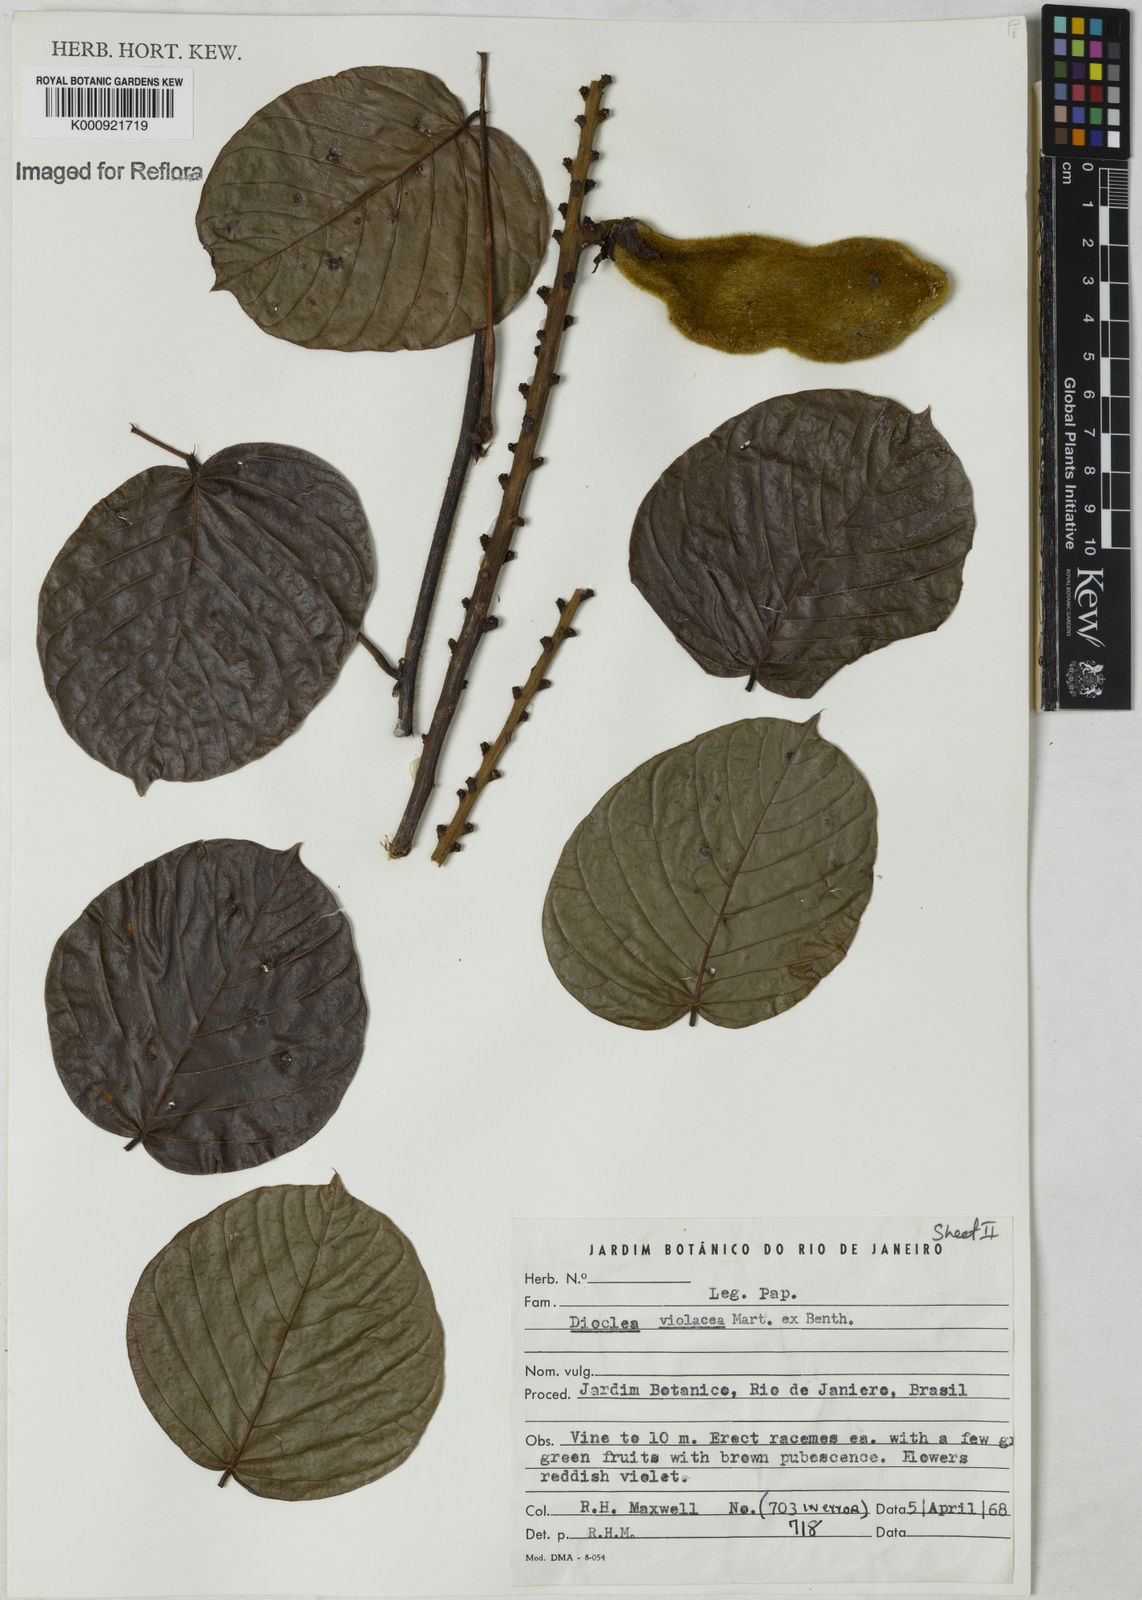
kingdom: Plantae
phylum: Tracheophyta
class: Magnoliopsida
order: Fabales
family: Fabaceae
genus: Macropsychanthus
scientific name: Macropsychanthus violaceus
